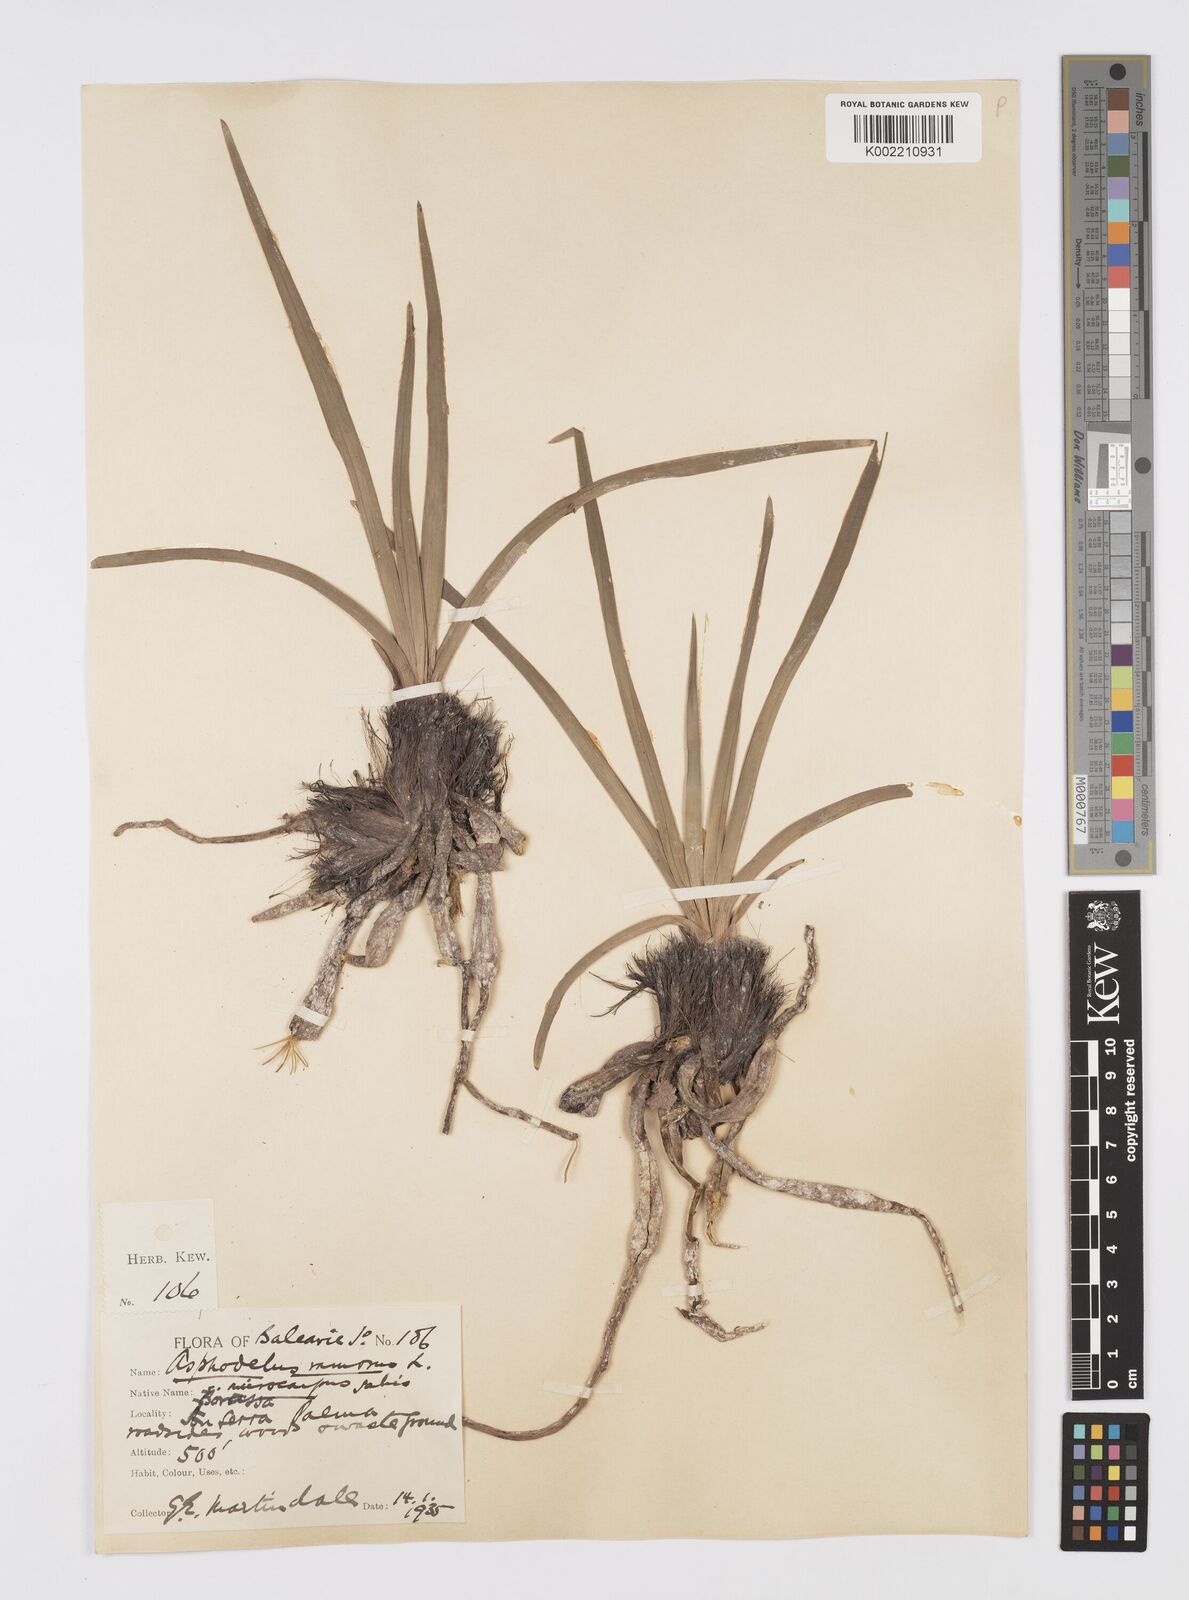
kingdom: Plantae
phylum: Tracheophyta
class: Liliopsida
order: Asparagales
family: Asphodelaceae
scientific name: Asphodelaceae
